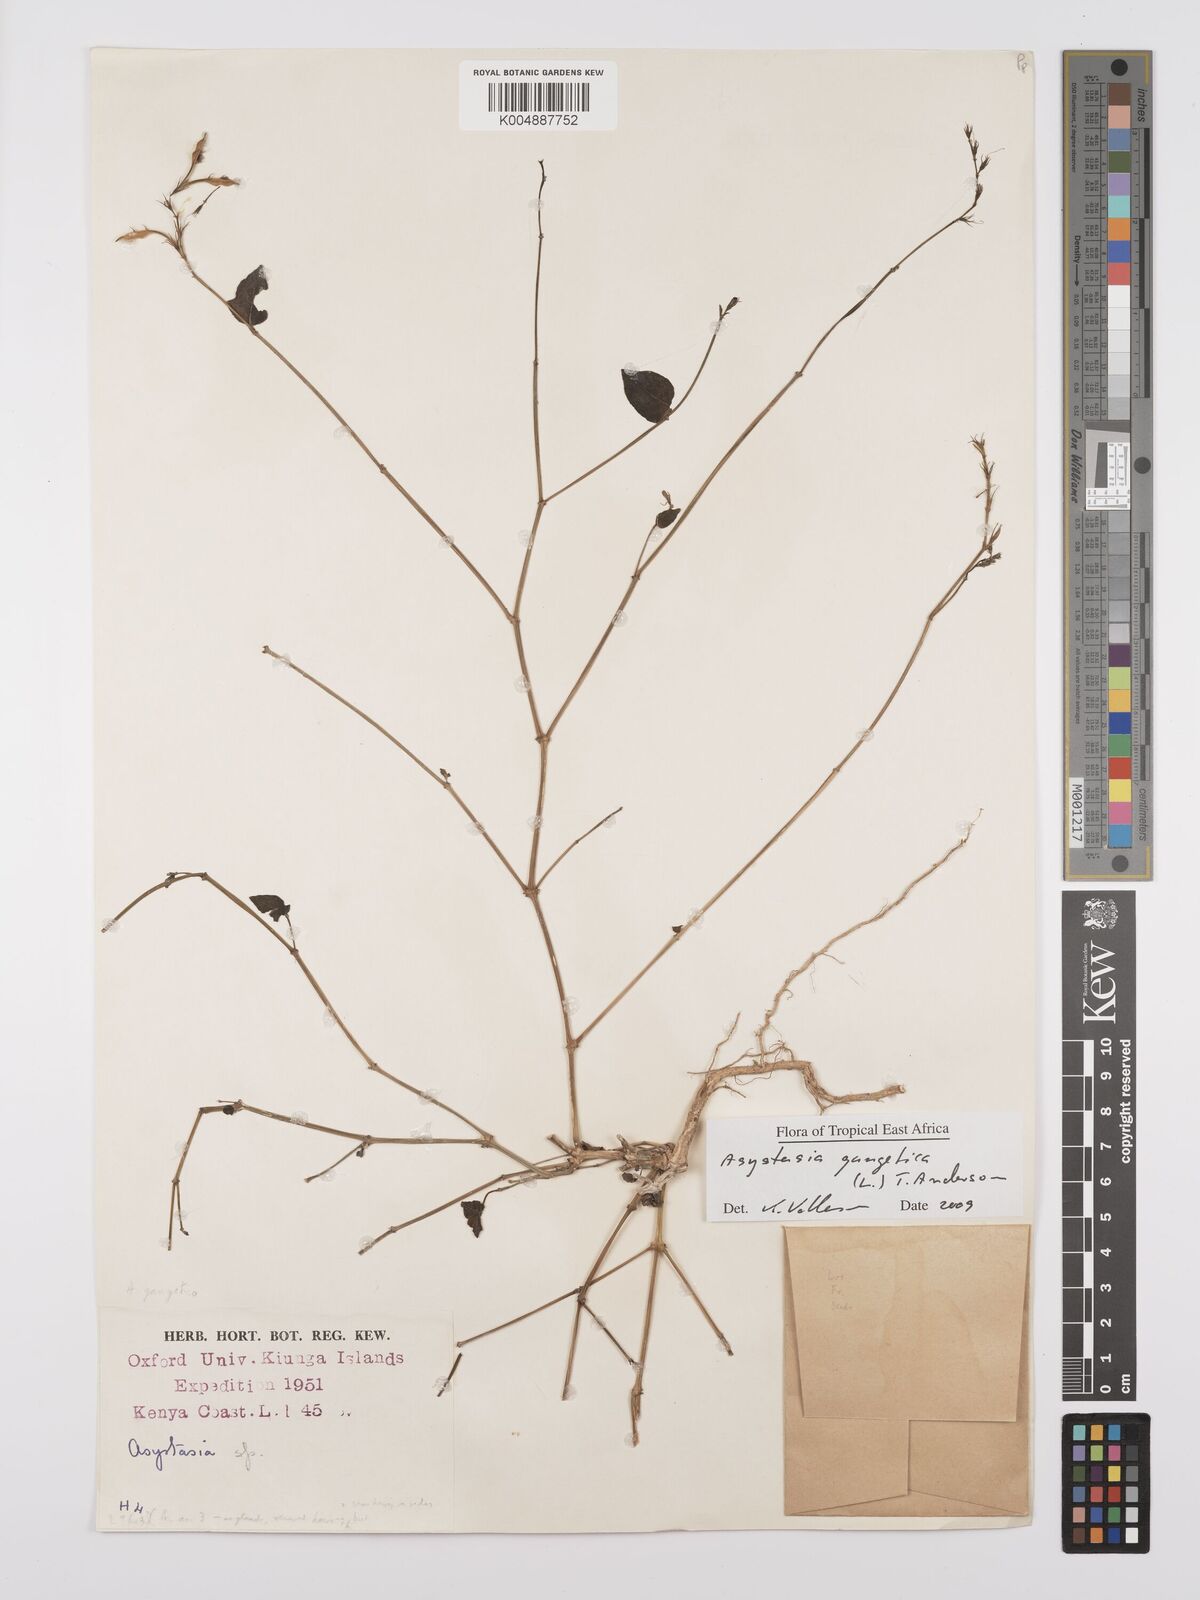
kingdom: Plantae
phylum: Tracheophyta
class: Magnoliopsida
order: Lamiales
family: Acanthaceae
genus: Asystasia
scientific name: Asystasia gangetica
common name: Chinese violet
